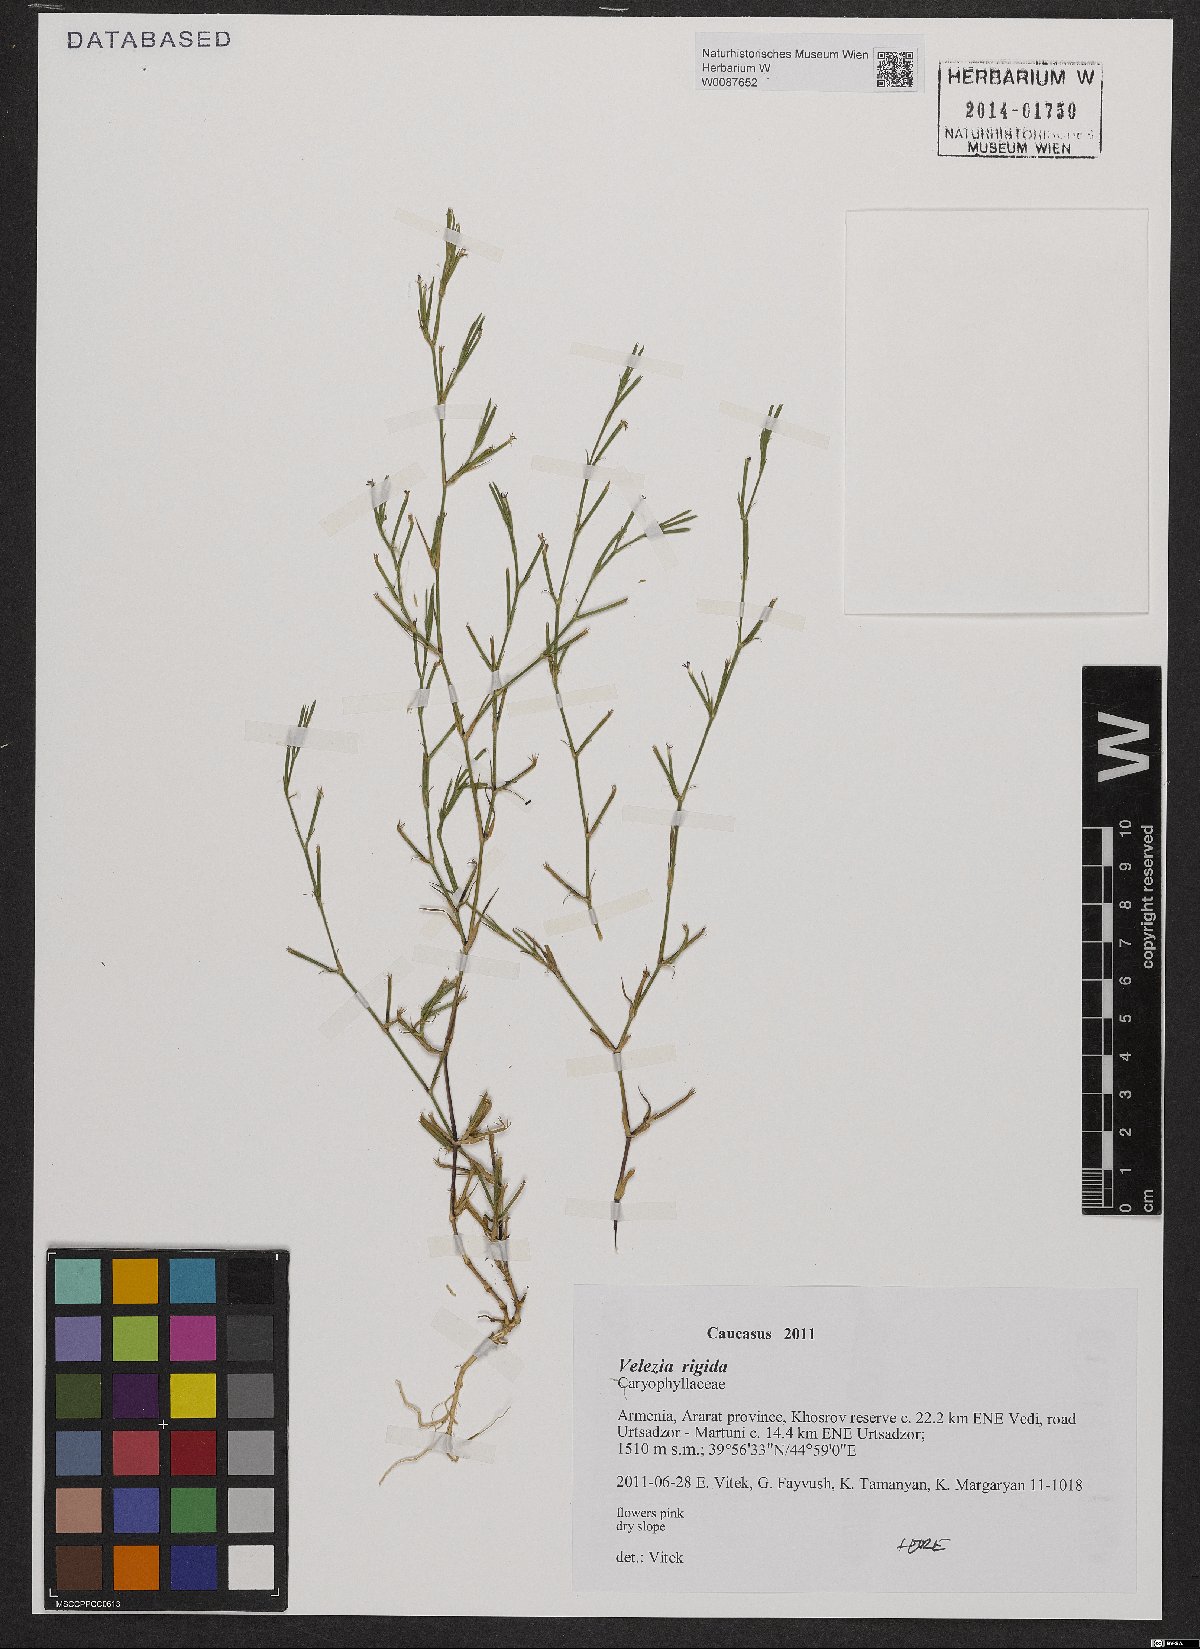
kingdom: Plantae
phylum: Tracheophyta
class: Magnoliopsida
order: Caryophyllales
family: Caryophyllaceae
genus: Dianthus
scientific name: Dianthus nudiflorus
